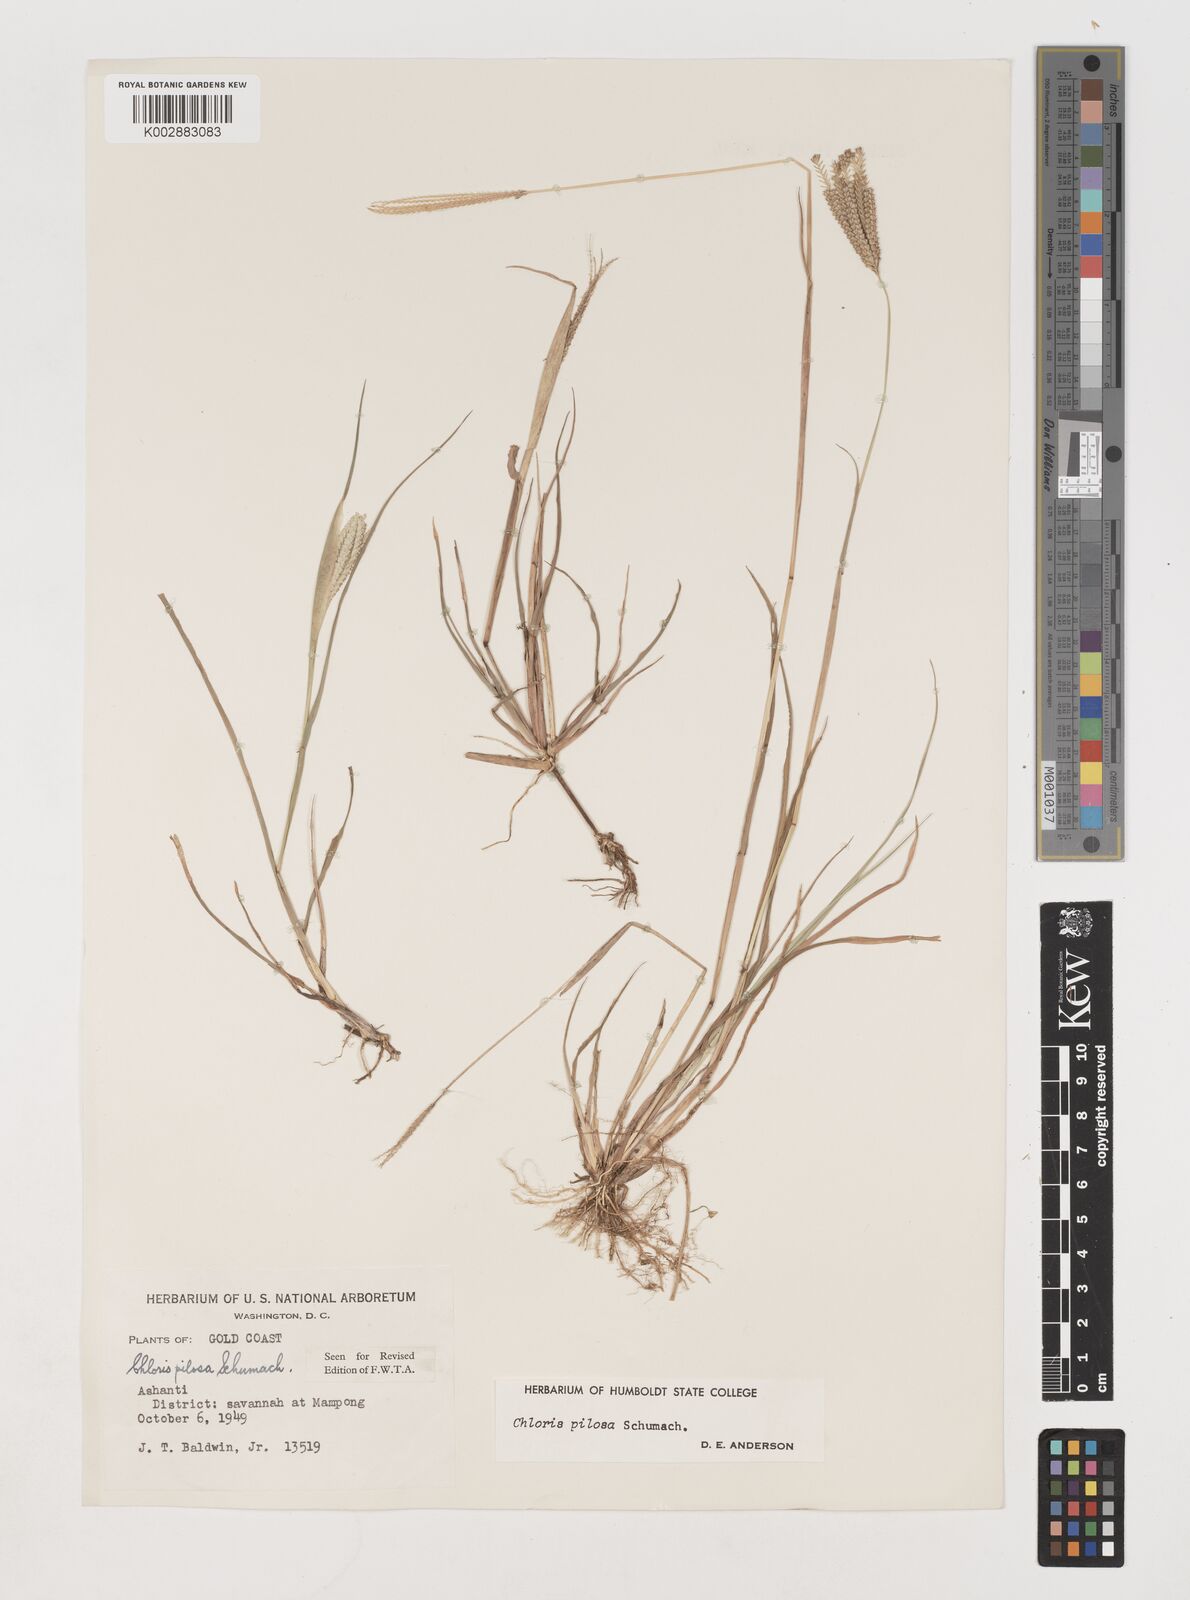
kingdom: Plantae
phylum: Tracheophyta
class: Liliopsida
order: Poales
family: Poaceae
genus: Chloris
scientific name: Chloris pilosa
